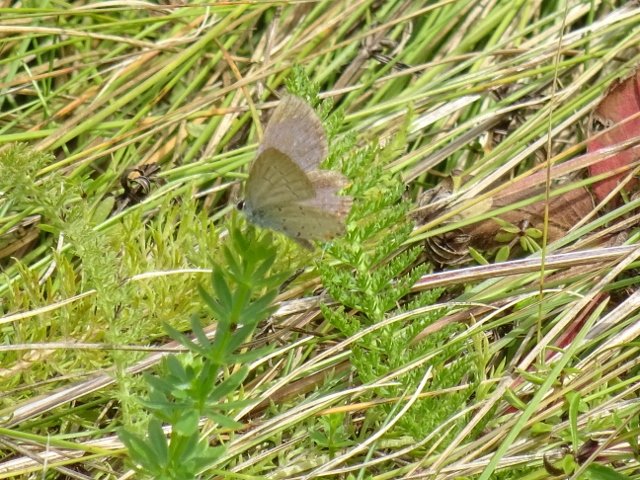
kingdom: Animalia
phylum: Arthropoda
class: Insecta
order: Lepidoptera
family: Lycaenidae
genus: Elkalyce
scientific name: Elkalyce comyntas
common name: Eastern Tailed-Blue
